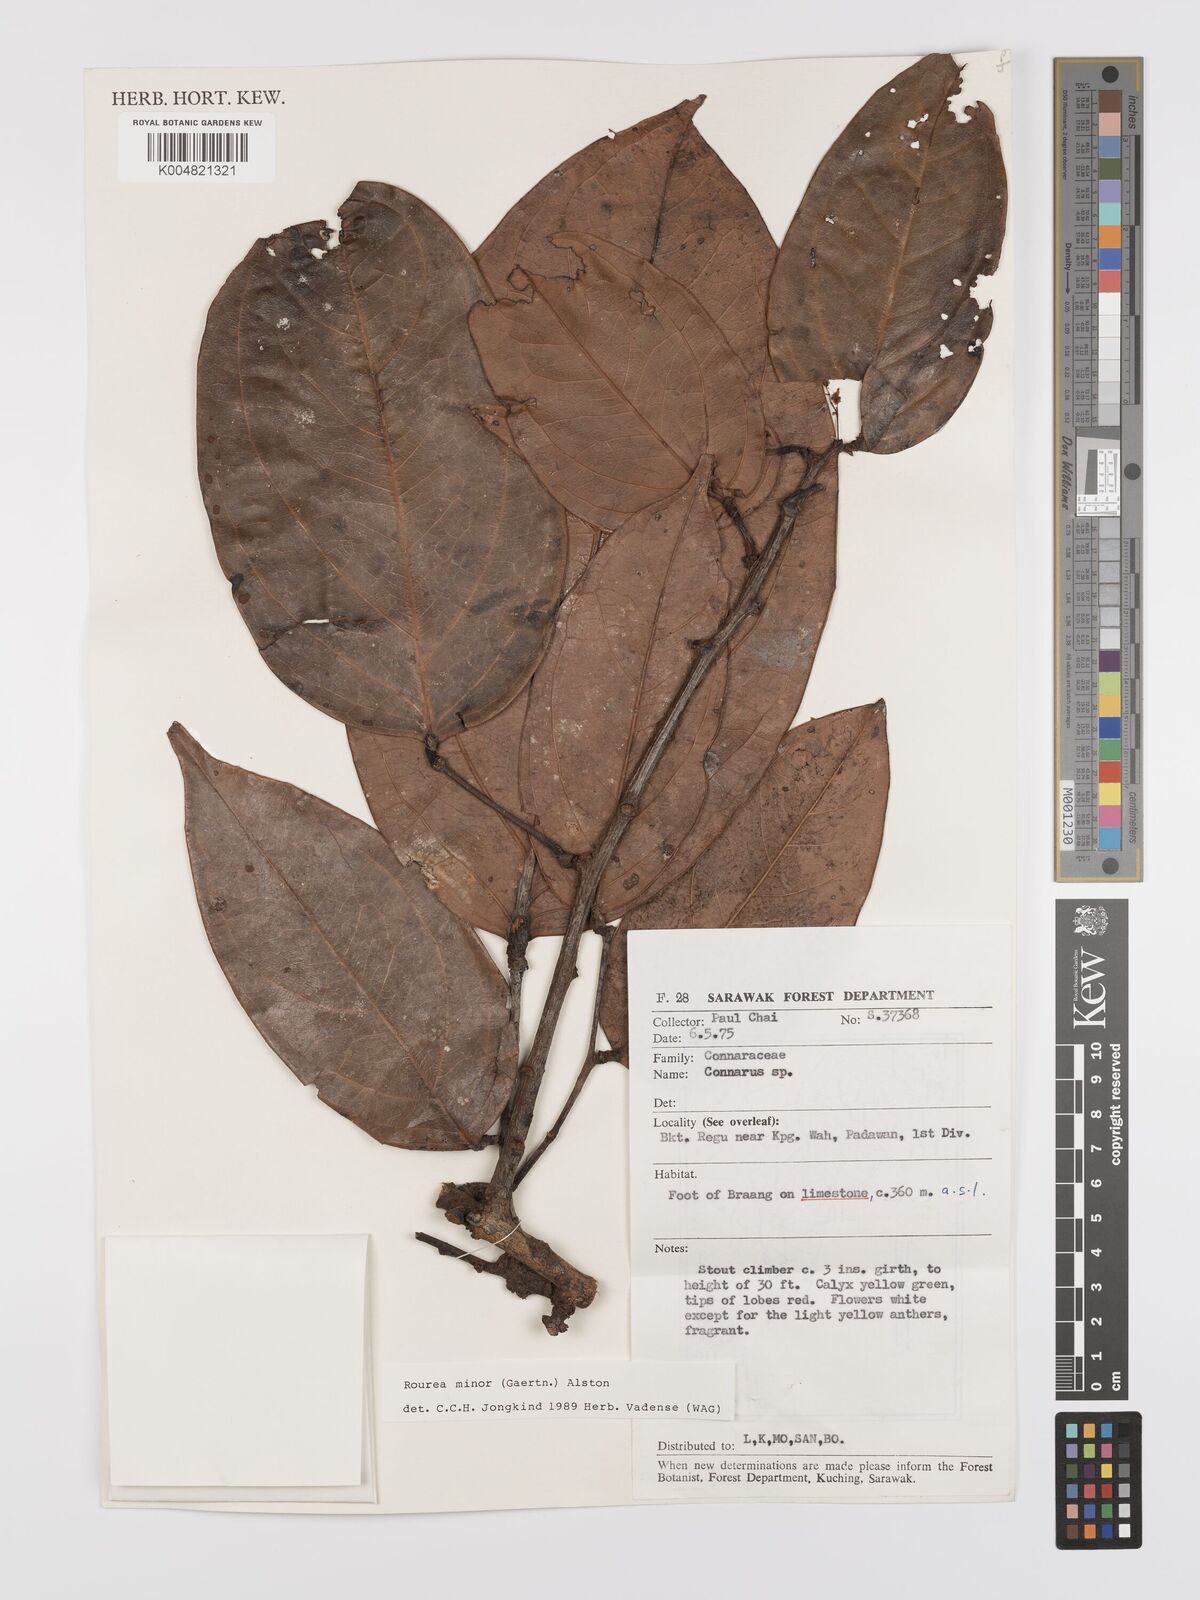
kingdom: Plantae
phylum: Tracheophyta
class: Magnoliopsida
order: Oxalidales
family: Connaraceae
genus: Rourea
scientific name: Rourea minor
